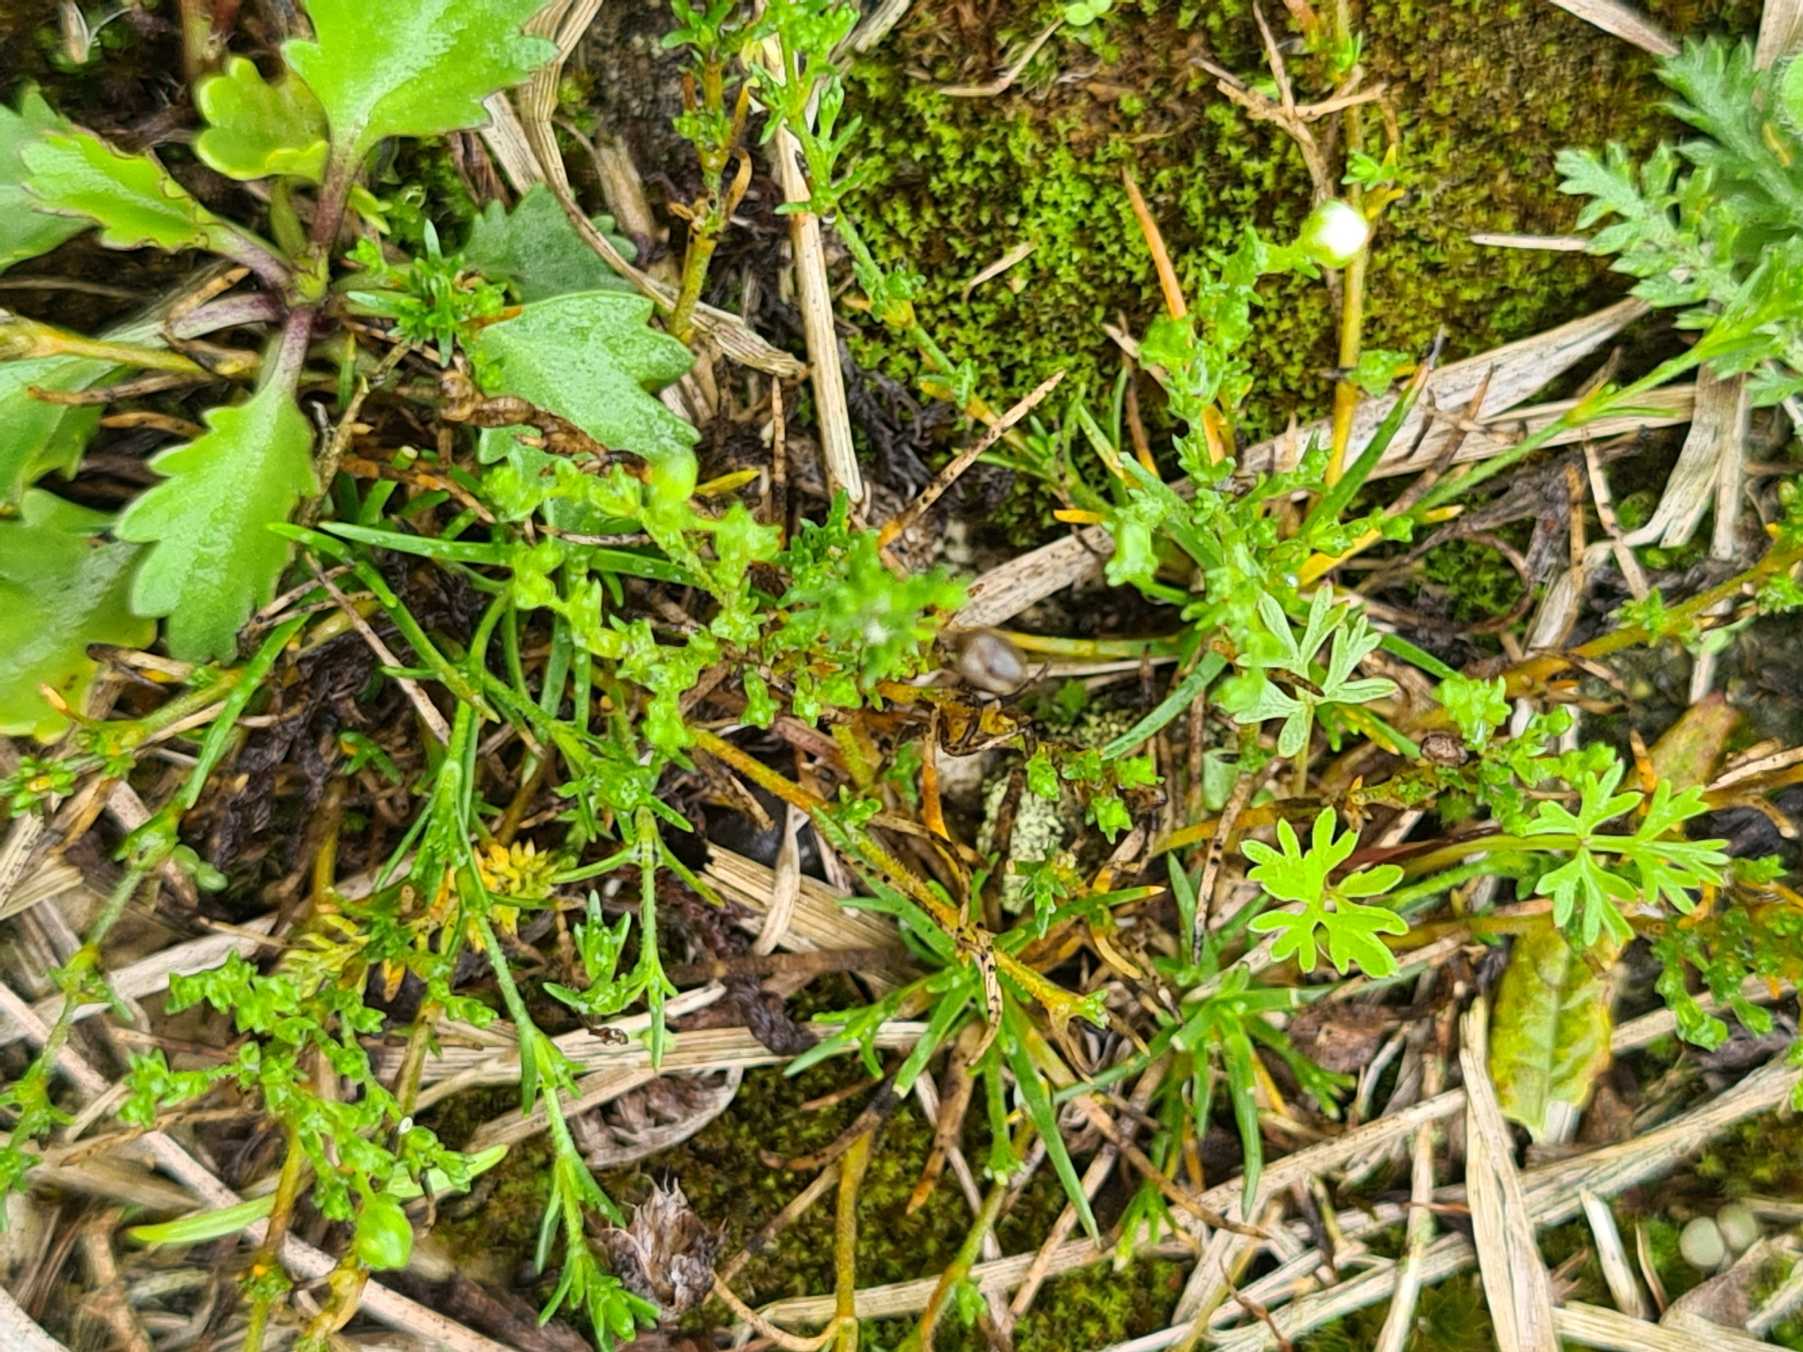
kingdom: Plantae
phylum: Tracheophyta
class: Magnoliopsida
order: Caryophyllales
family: Caryophyllaceae
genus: Sagina
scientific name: Sagina nodosa
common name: Knude-firling
